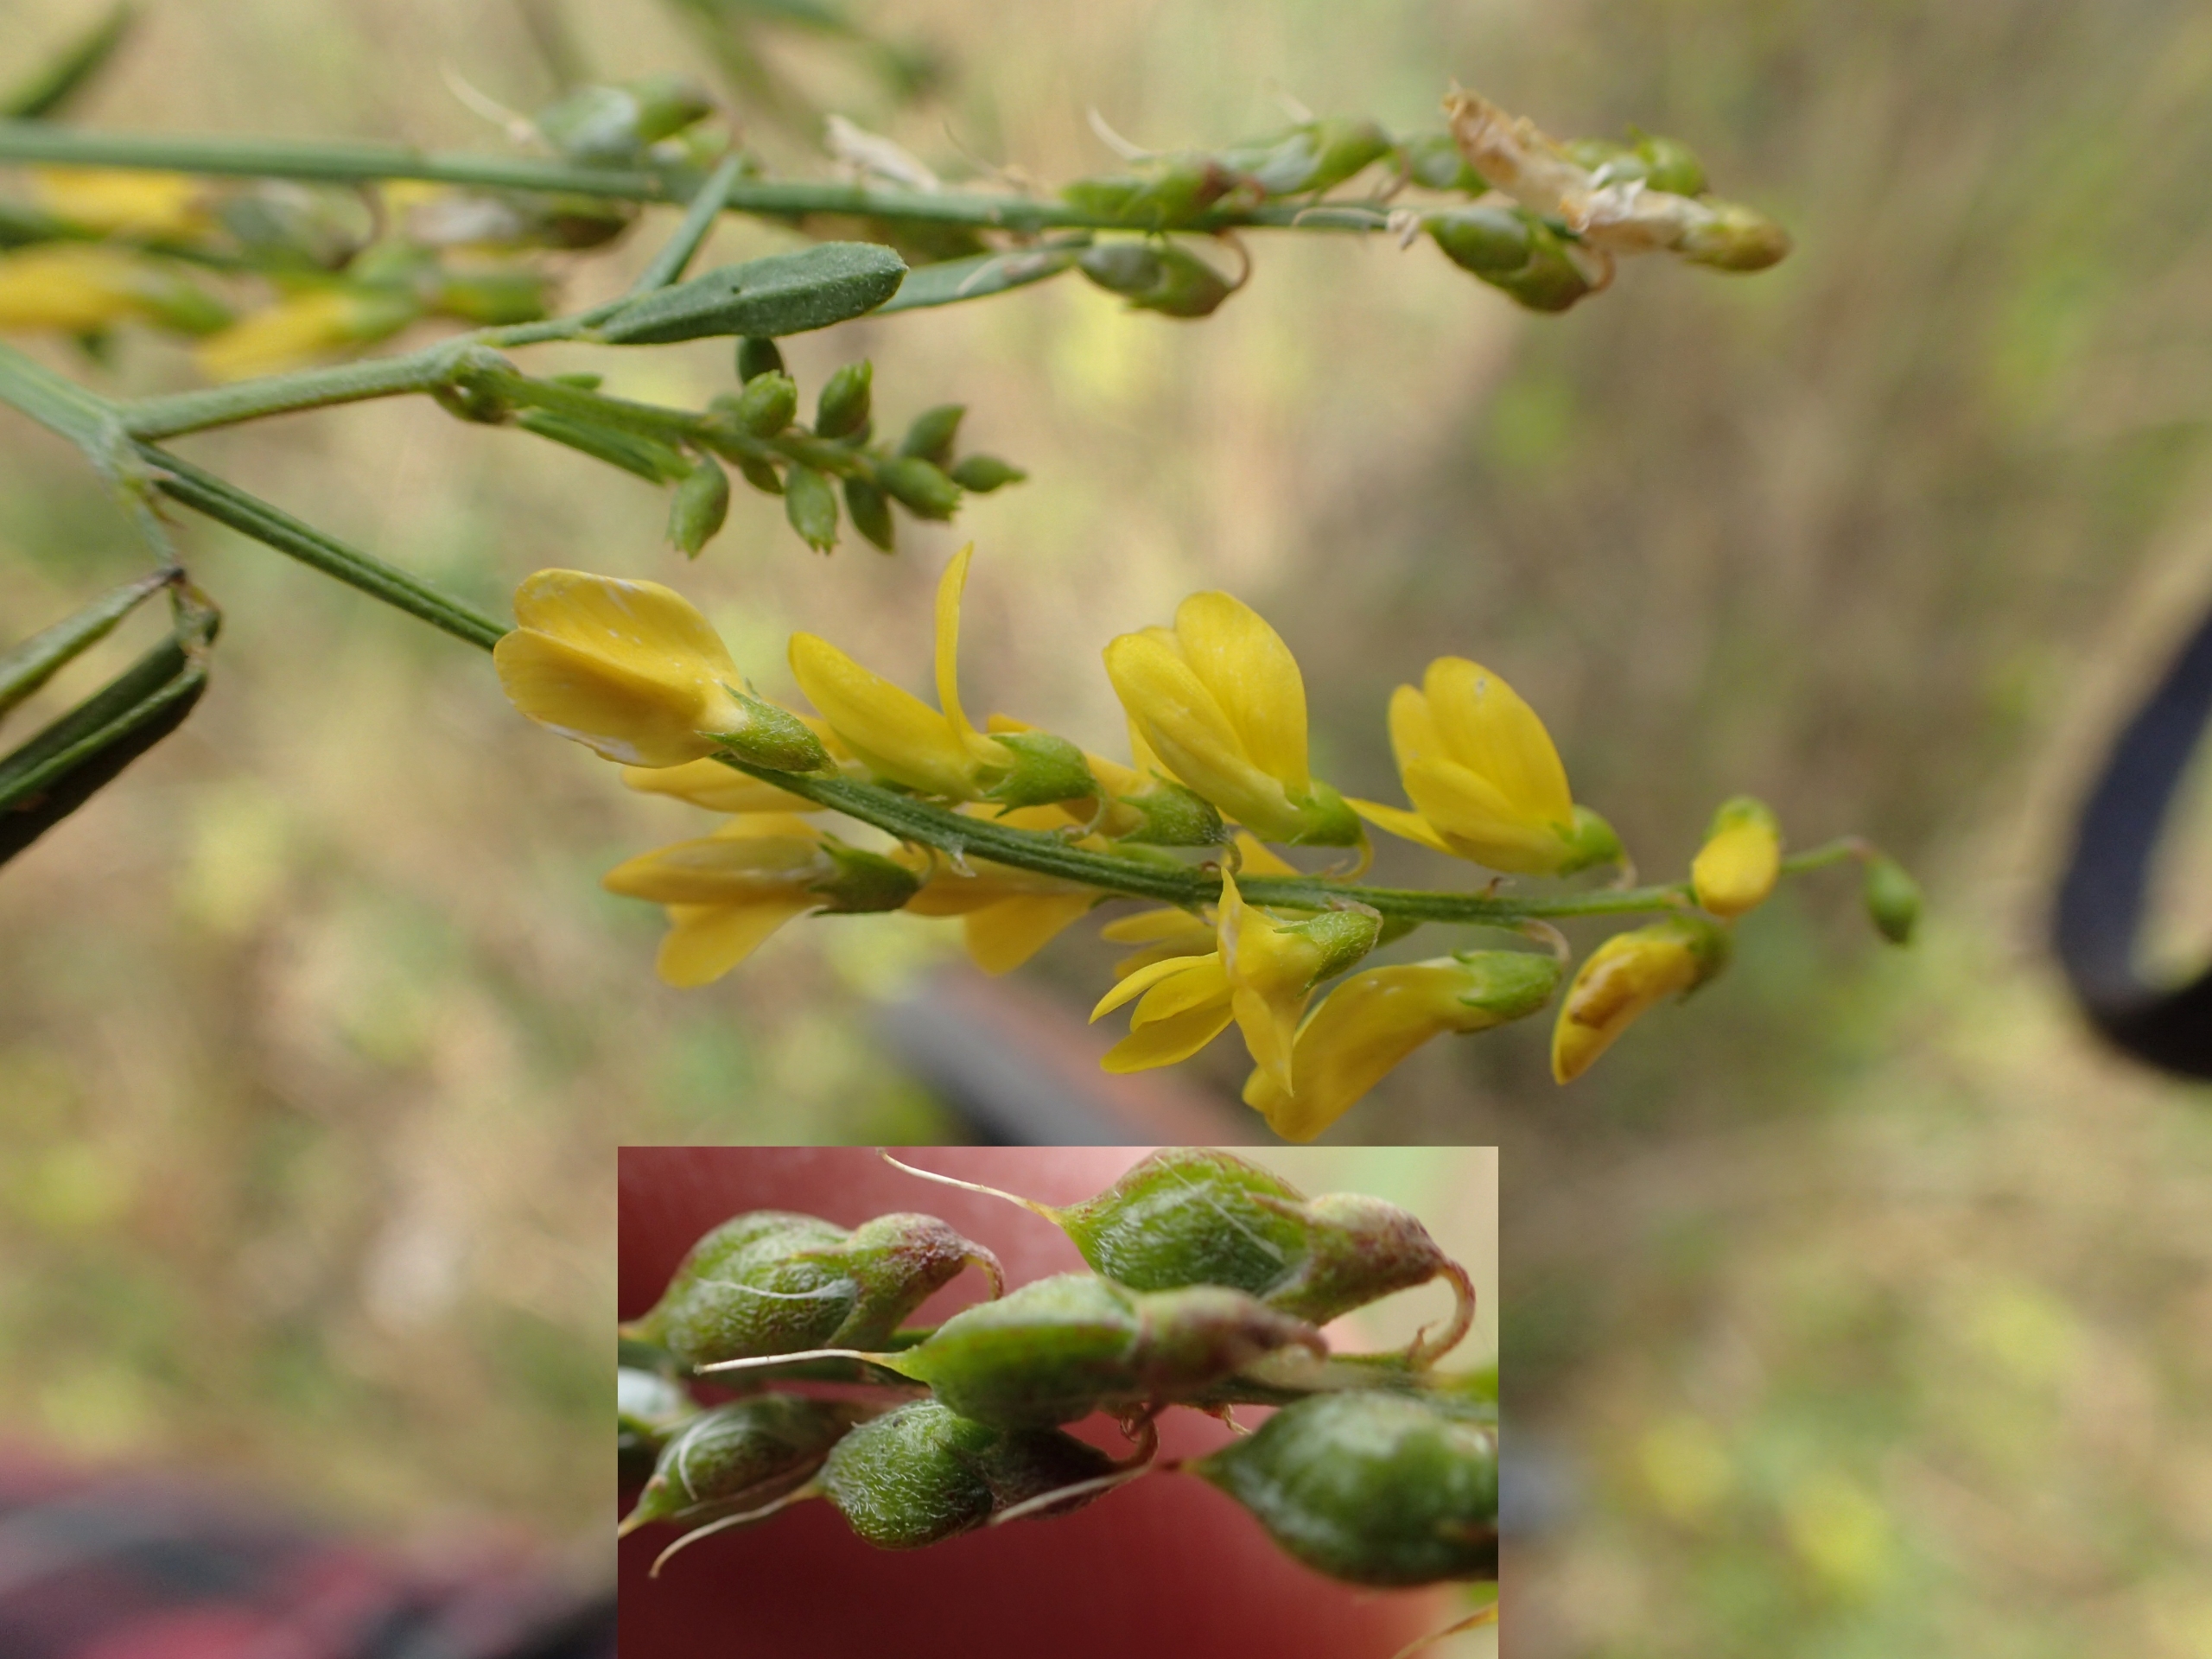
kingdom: Plantae
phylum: Tracheophyta
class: Magnoliopsida
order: Fabales
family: Fabaceae
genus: Melilotus
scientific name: Melilotus altissimus
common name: Høj stenkløver
